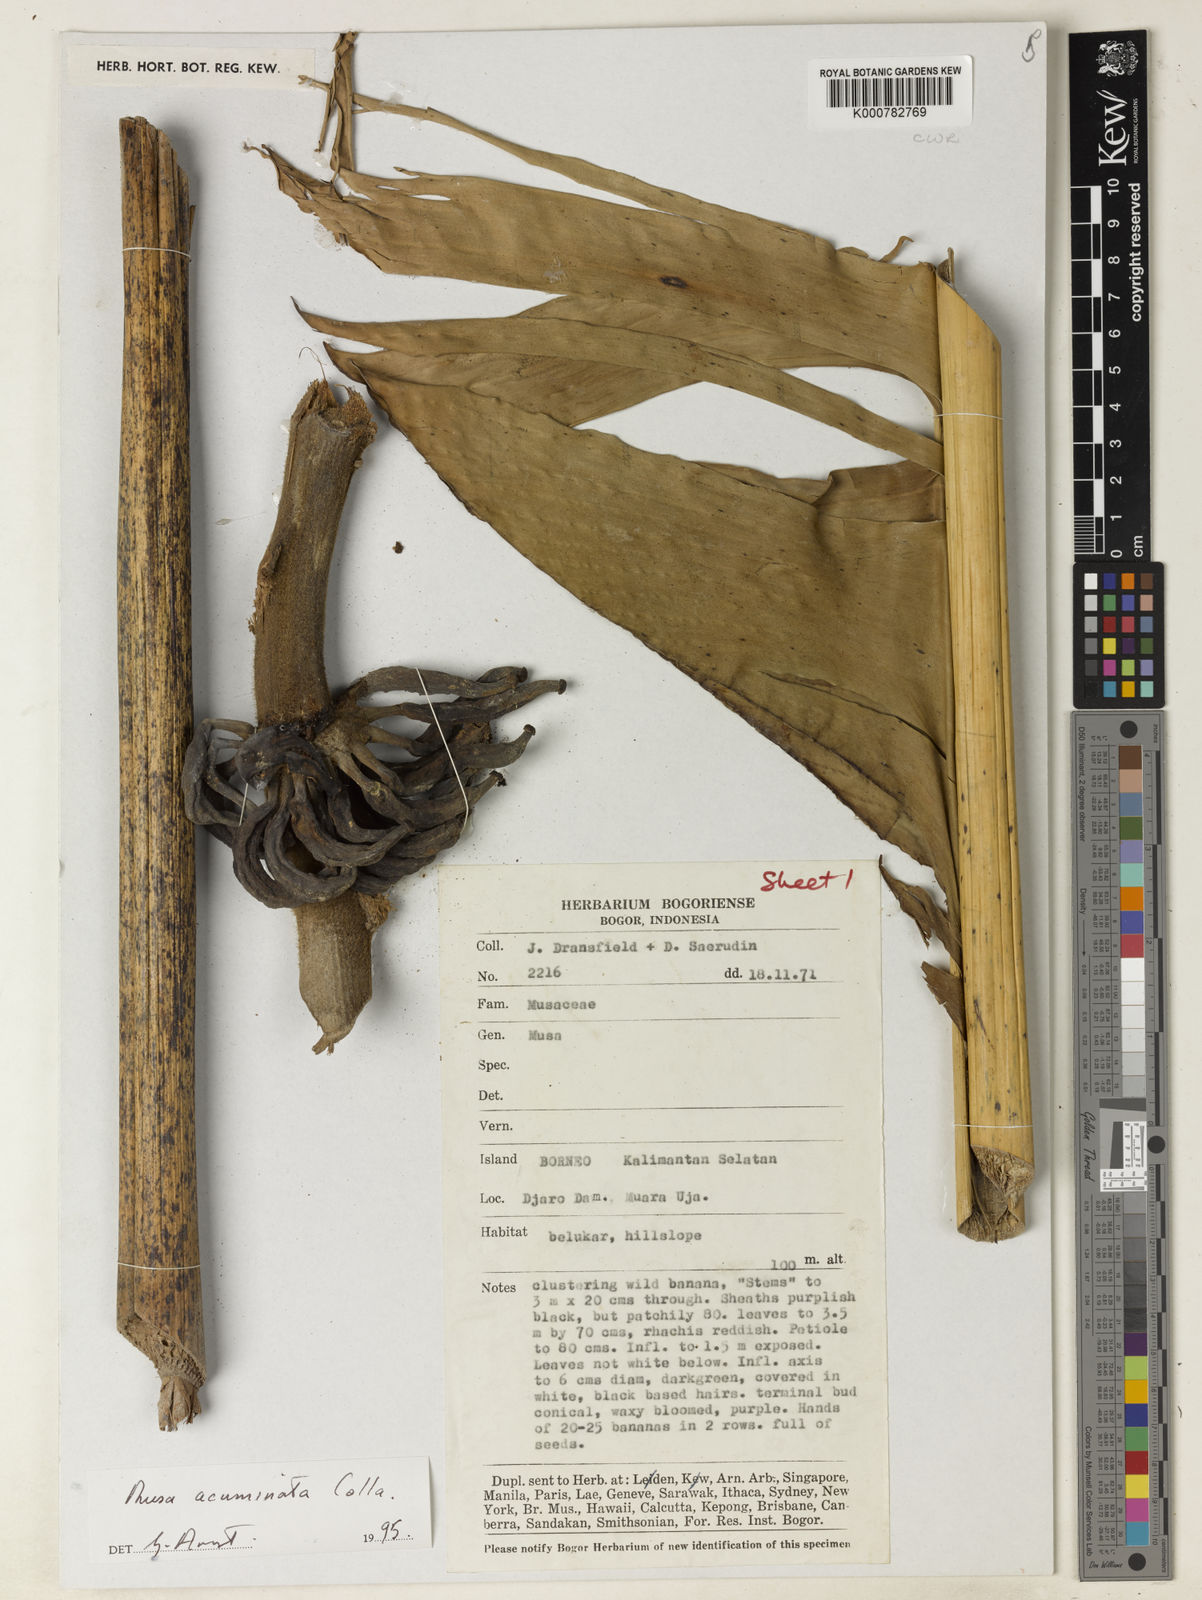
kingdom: Plantae
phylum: Tracheophyta
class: Liliopsida
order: Zingiberales
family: Musaceae
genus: Musa
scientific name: Musa acuminata
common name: Edible banana
